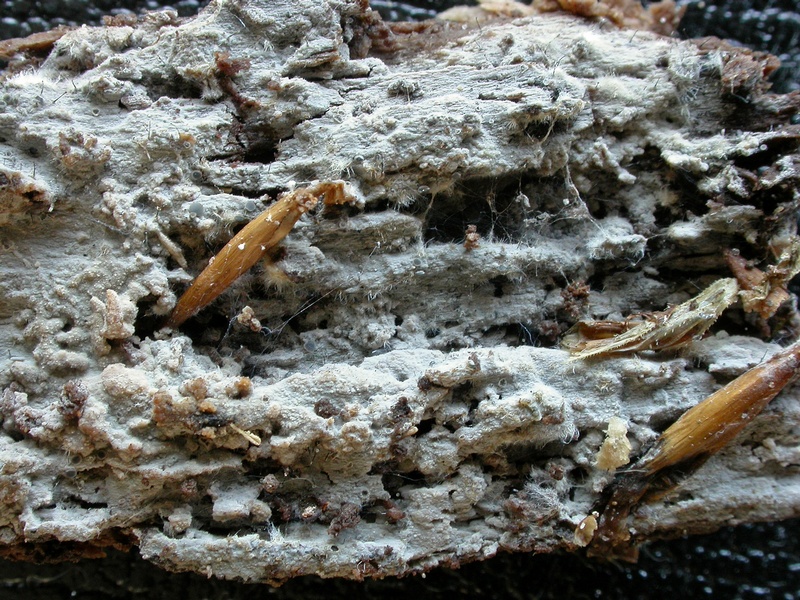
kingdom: Fungi
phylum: Basidiomycota
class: Agaricomycetes
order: Polyporales
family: Hyphodermataceae
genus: Kneiffia
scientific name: Kneiffia subalutacea
